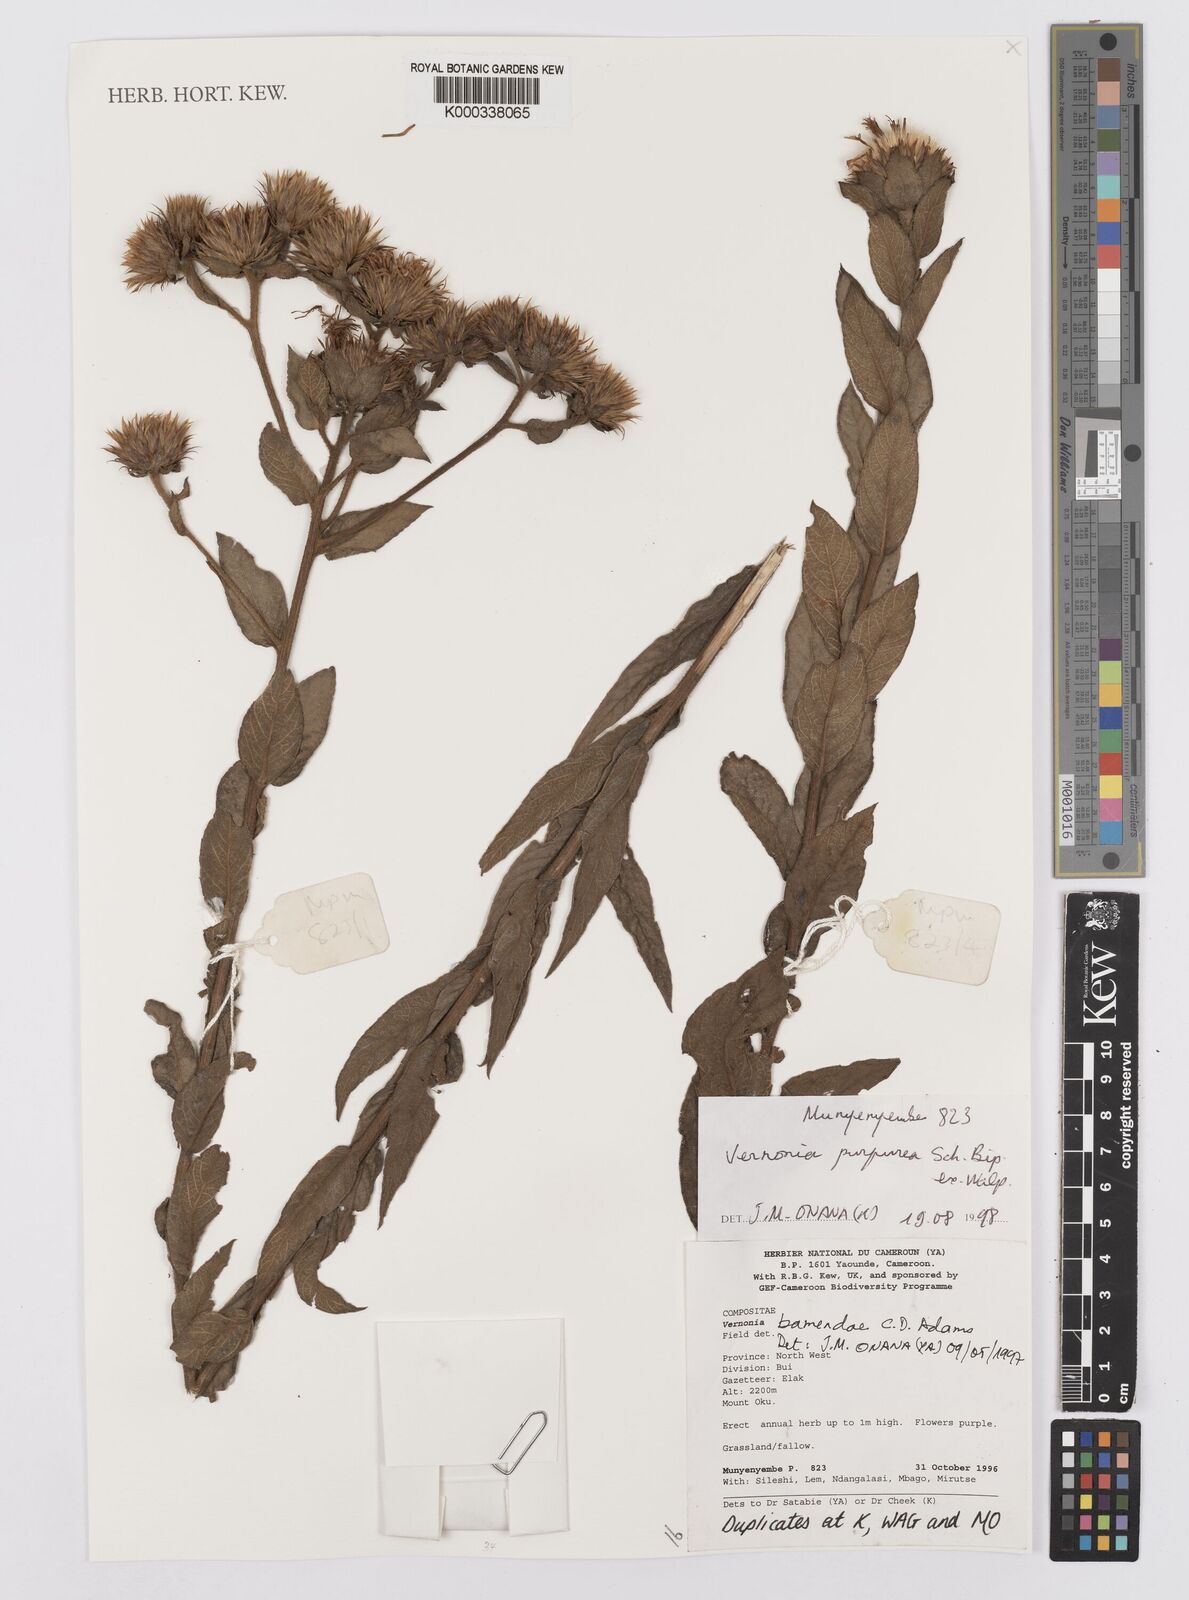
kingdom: Plantae
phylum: Tracheophyta
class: Magnoliopsida
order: Asterales
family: Asteraceae
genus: Orbivestus
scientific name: Orbivestus bamendae
